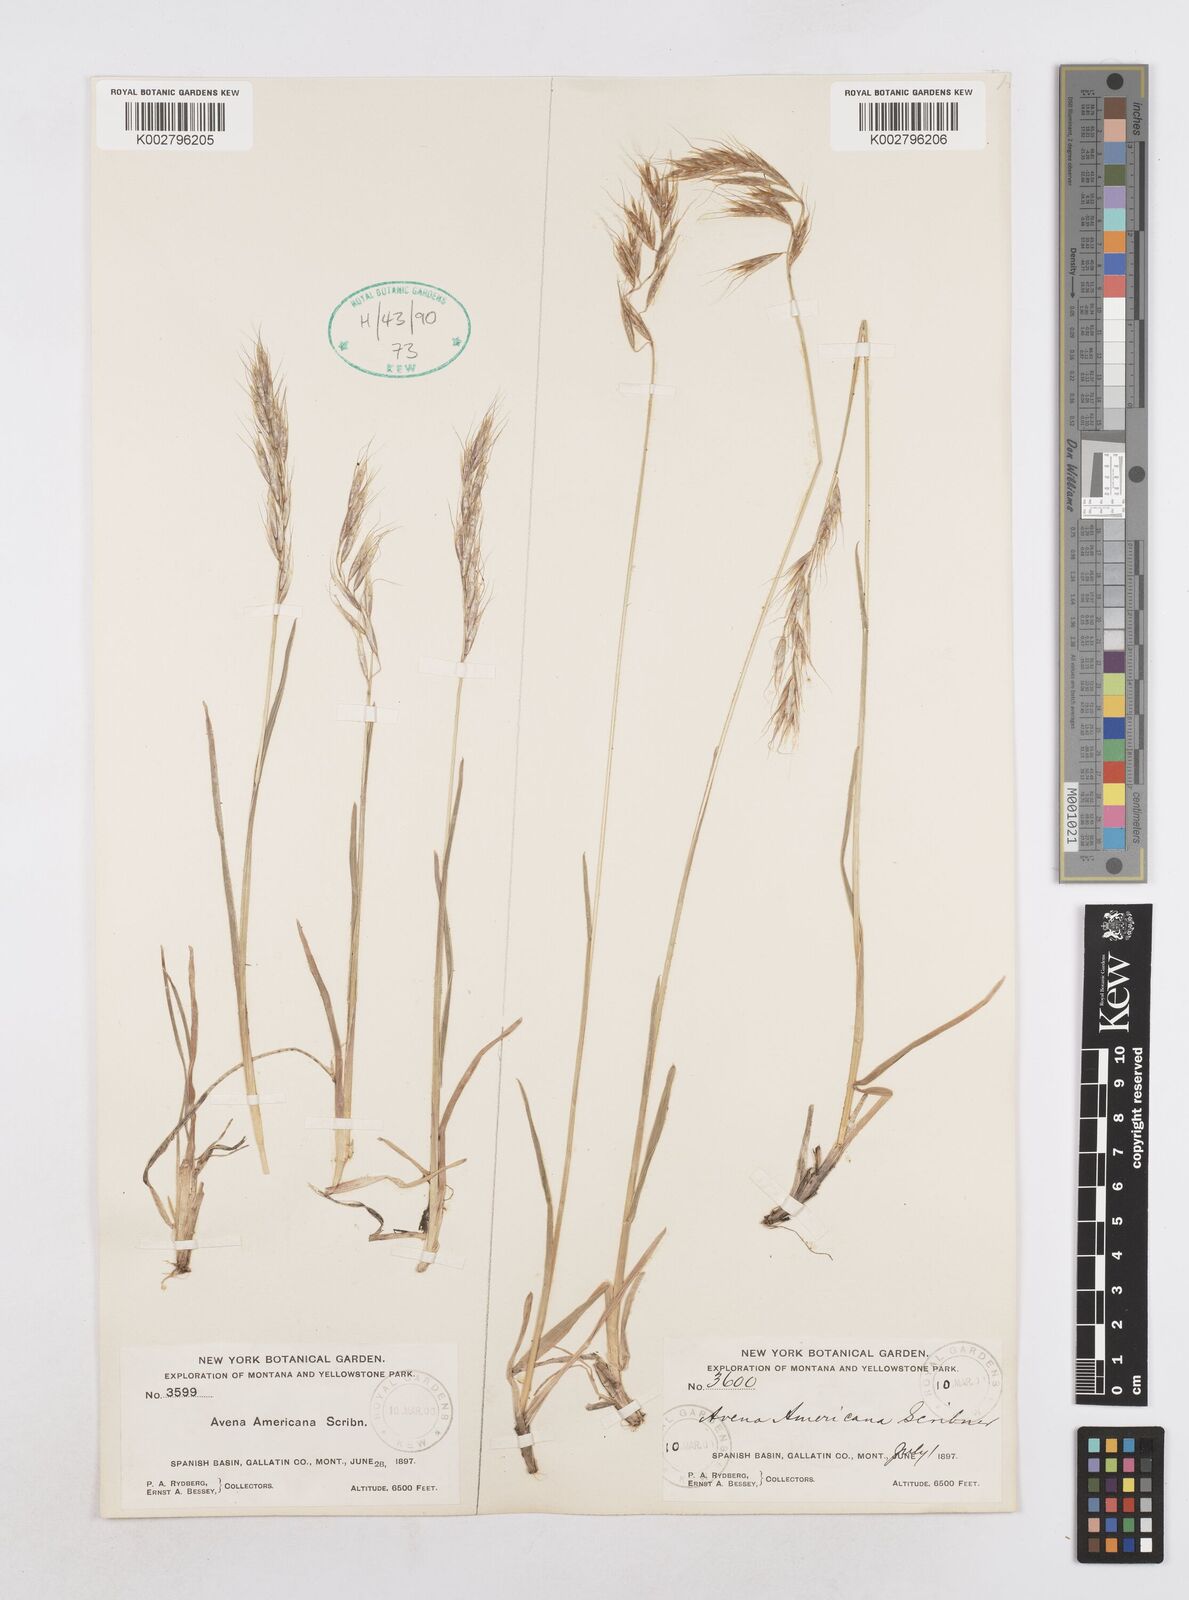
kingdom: Plantae
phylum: Tracheophyta
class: Liliopsida
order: Poales
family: Poaceae
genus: Helictotrichon
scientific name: Helictotrichon
